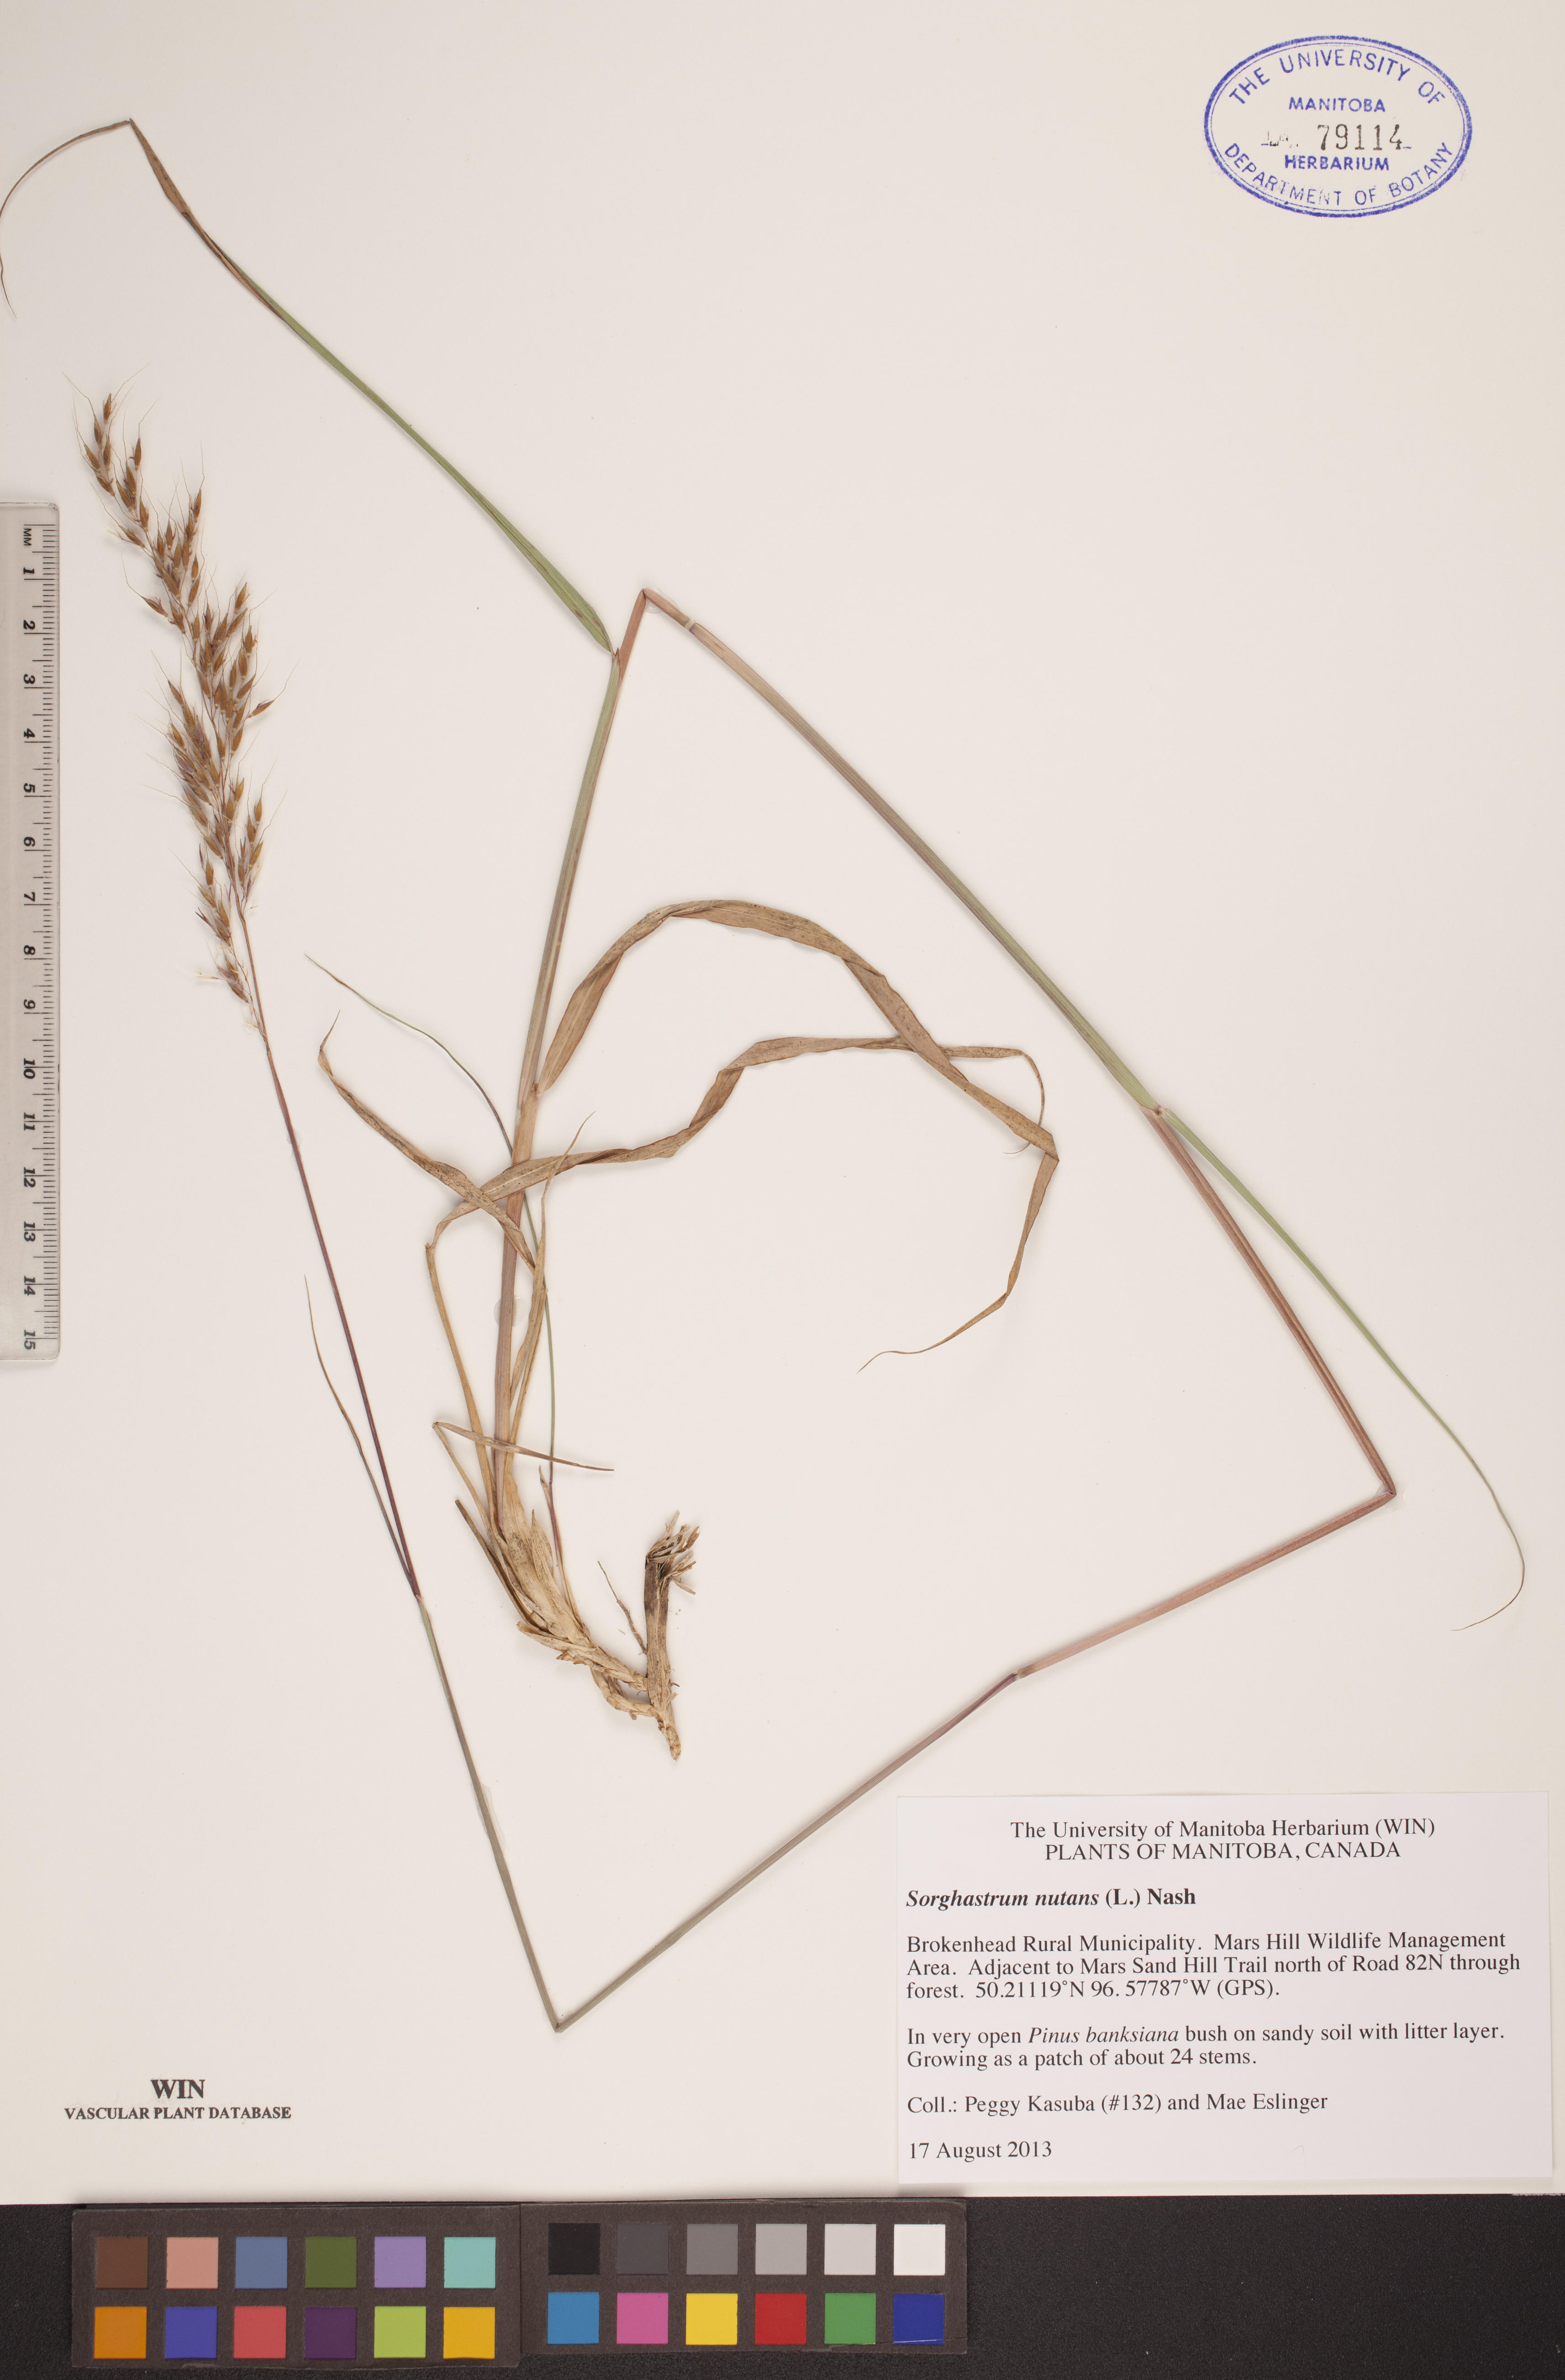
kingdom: Plantae
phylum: Tracheophyta
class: Liliopsida
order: Poales
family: Poaceae
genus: Sorghastrum
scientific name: Sorghastrum nutans
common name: Indian grass
